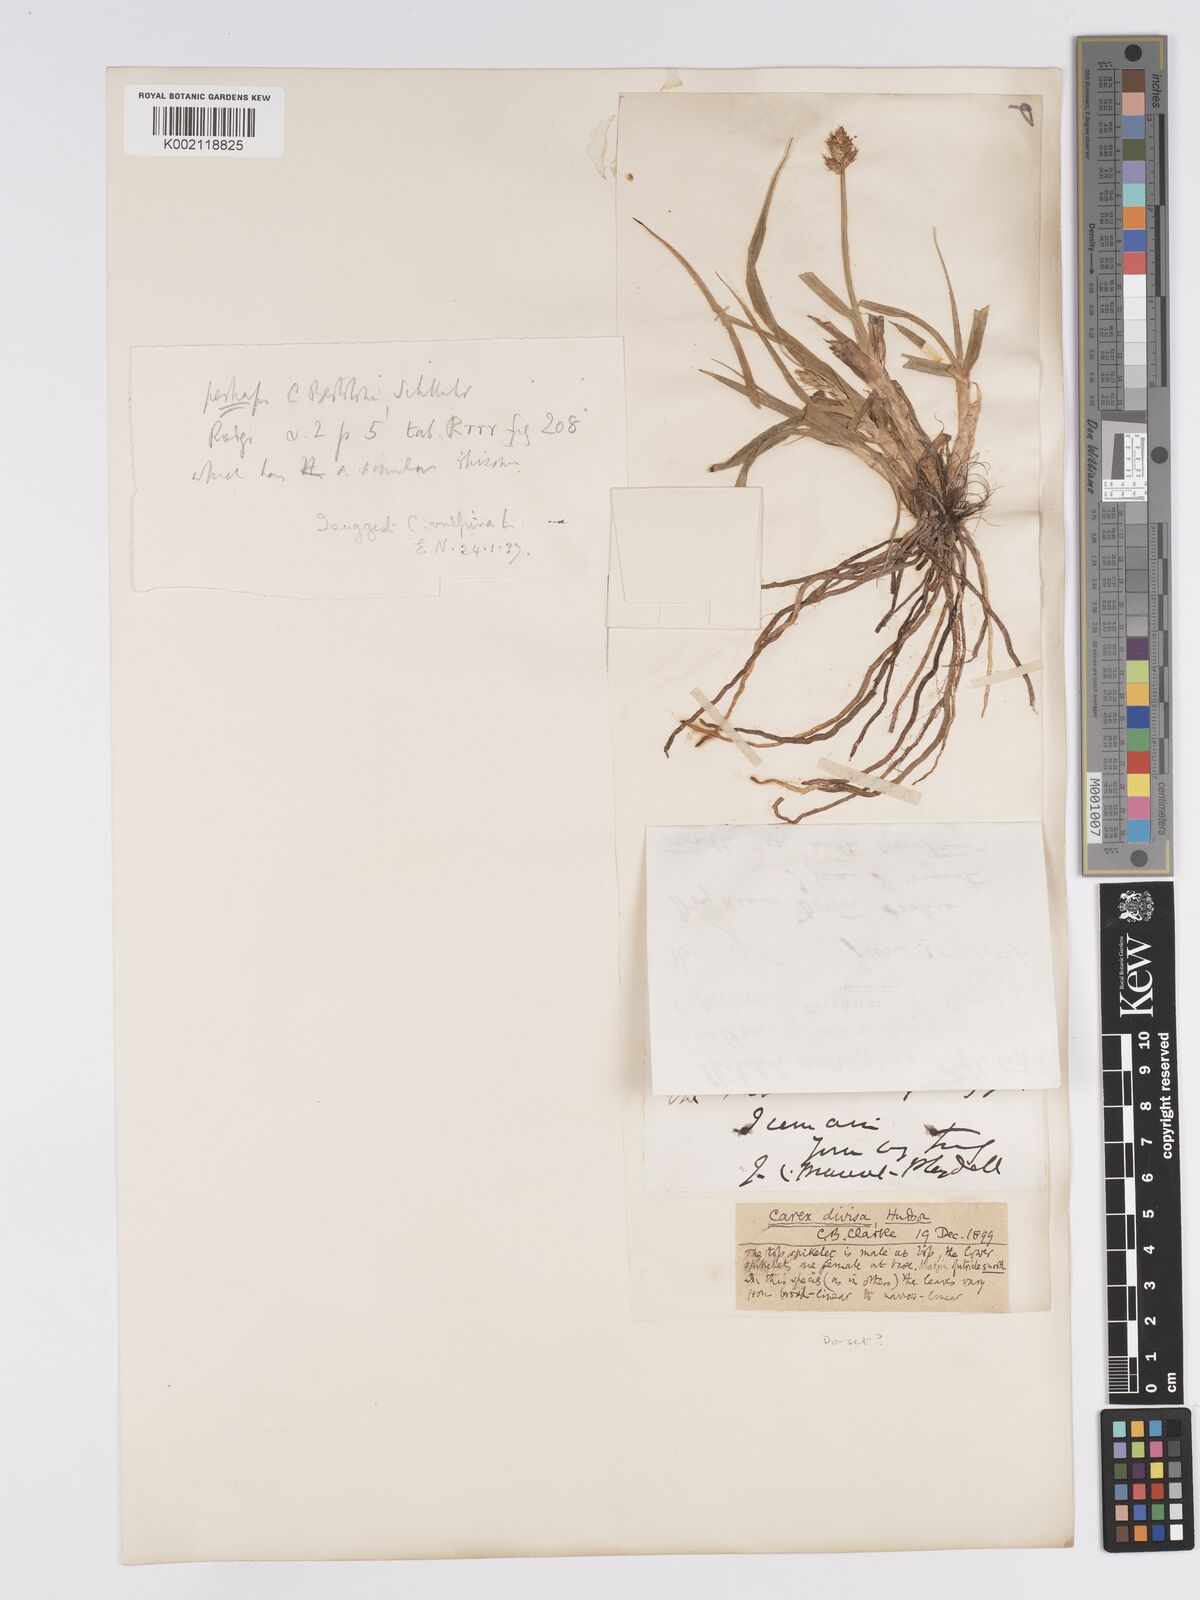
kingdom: Plantae
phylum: Tracheophyta
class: Liliopsida
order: Poales
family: Cyperaceae
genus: Carex
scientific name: Carex leporina
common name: Oval sedge
